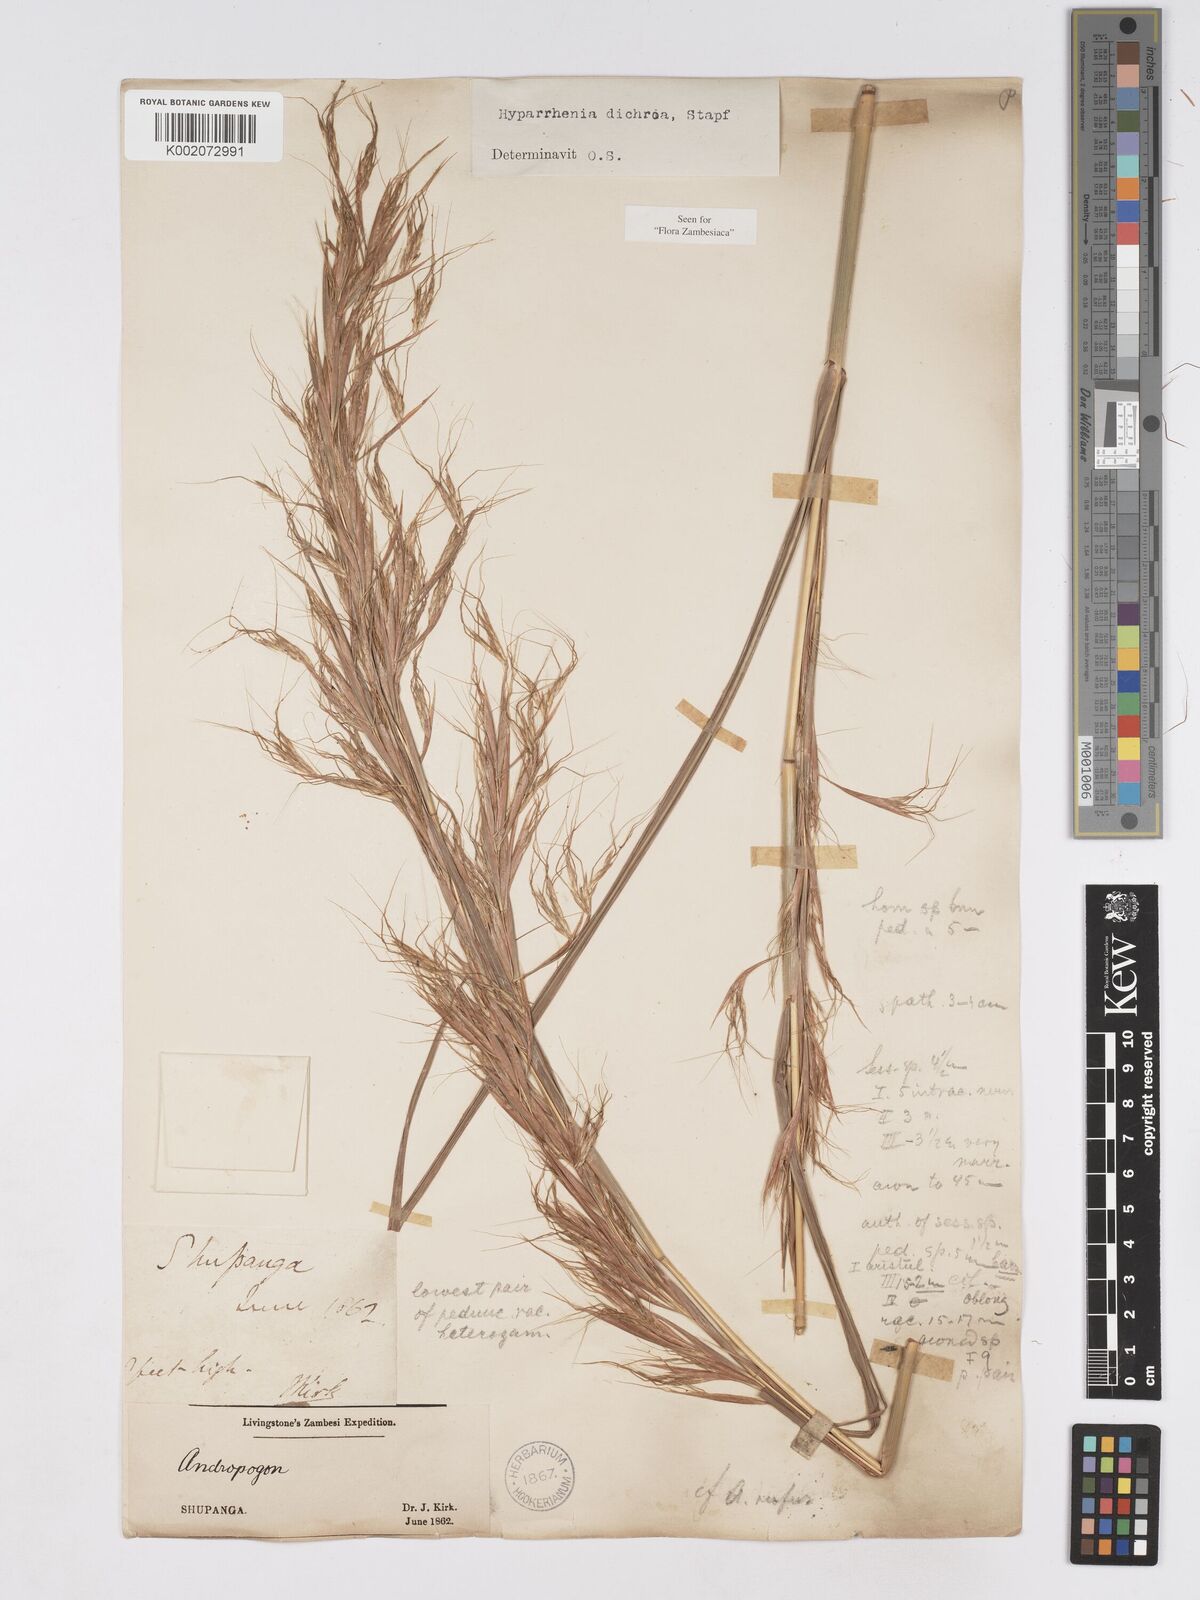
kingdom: Plantae
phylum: Tracheophyta
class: Liliopsida
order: Poales
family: Poaceae
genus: Hyparrhenia
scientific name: Hyparrhenia dichroa
